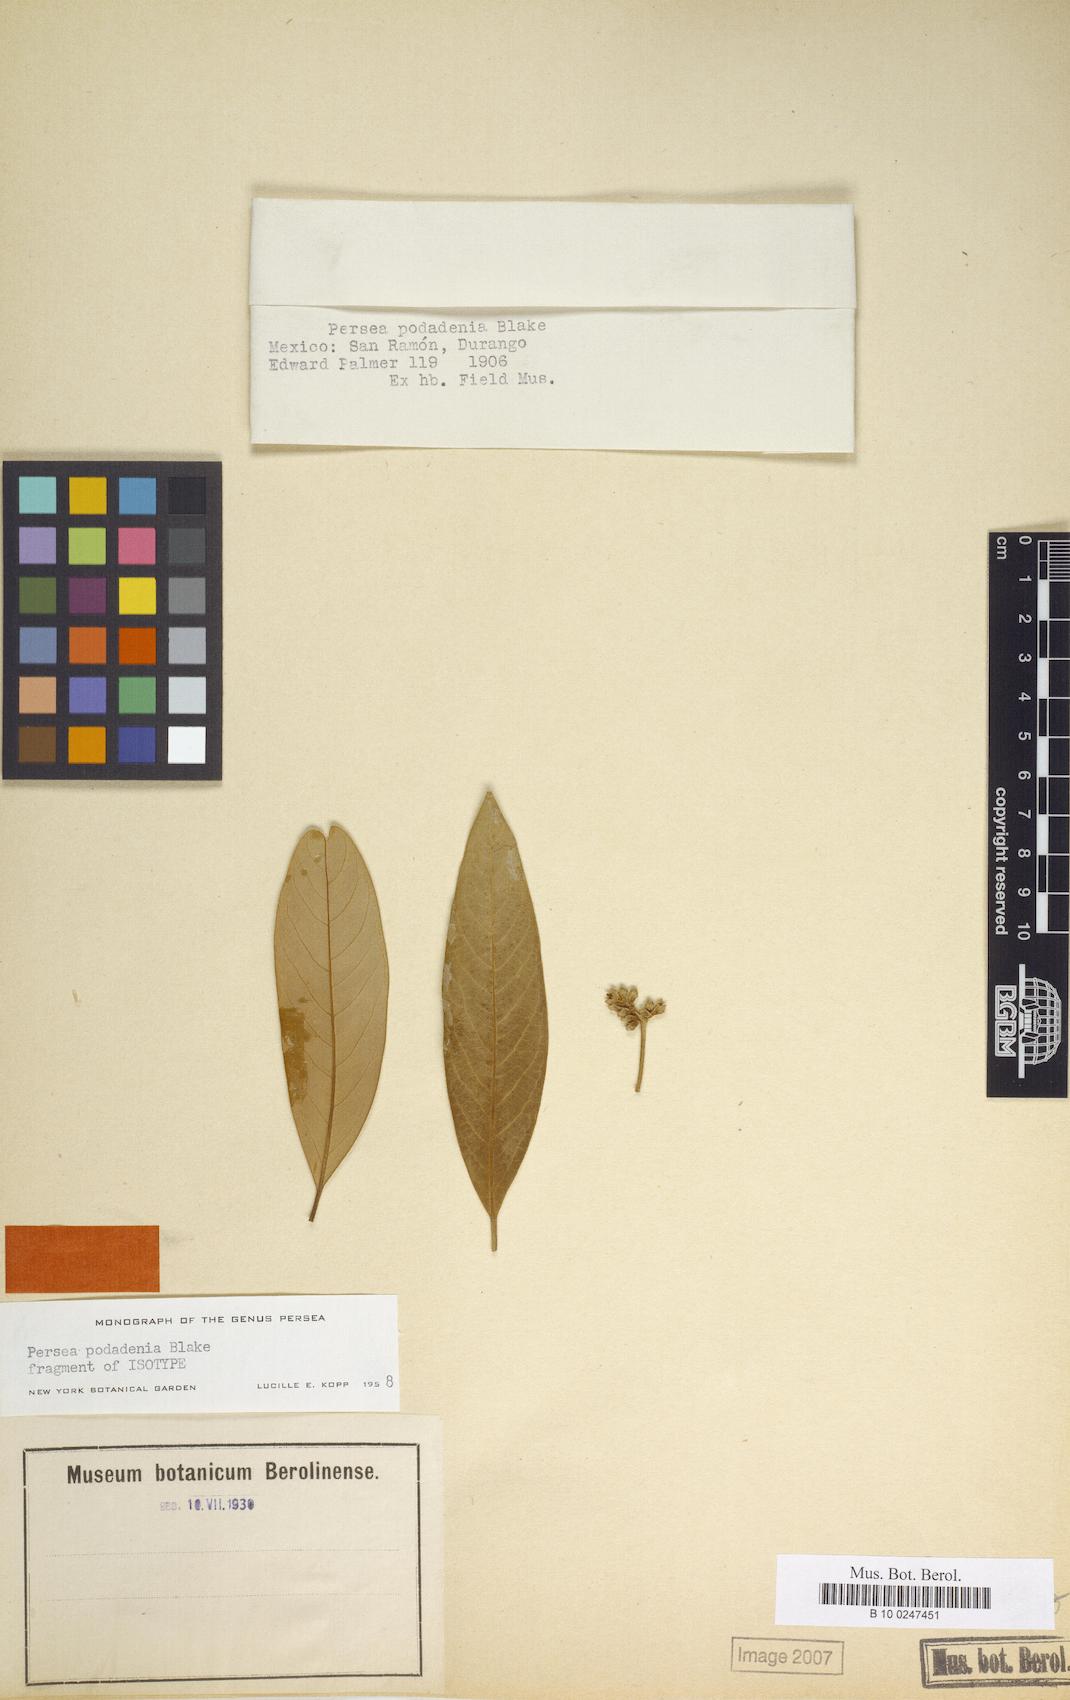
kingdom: Plantae
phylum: Tracheophyta
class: Magnoliopsida
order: Laurales
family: Lauraceae
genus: Persea
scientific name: Persea liebmannii
